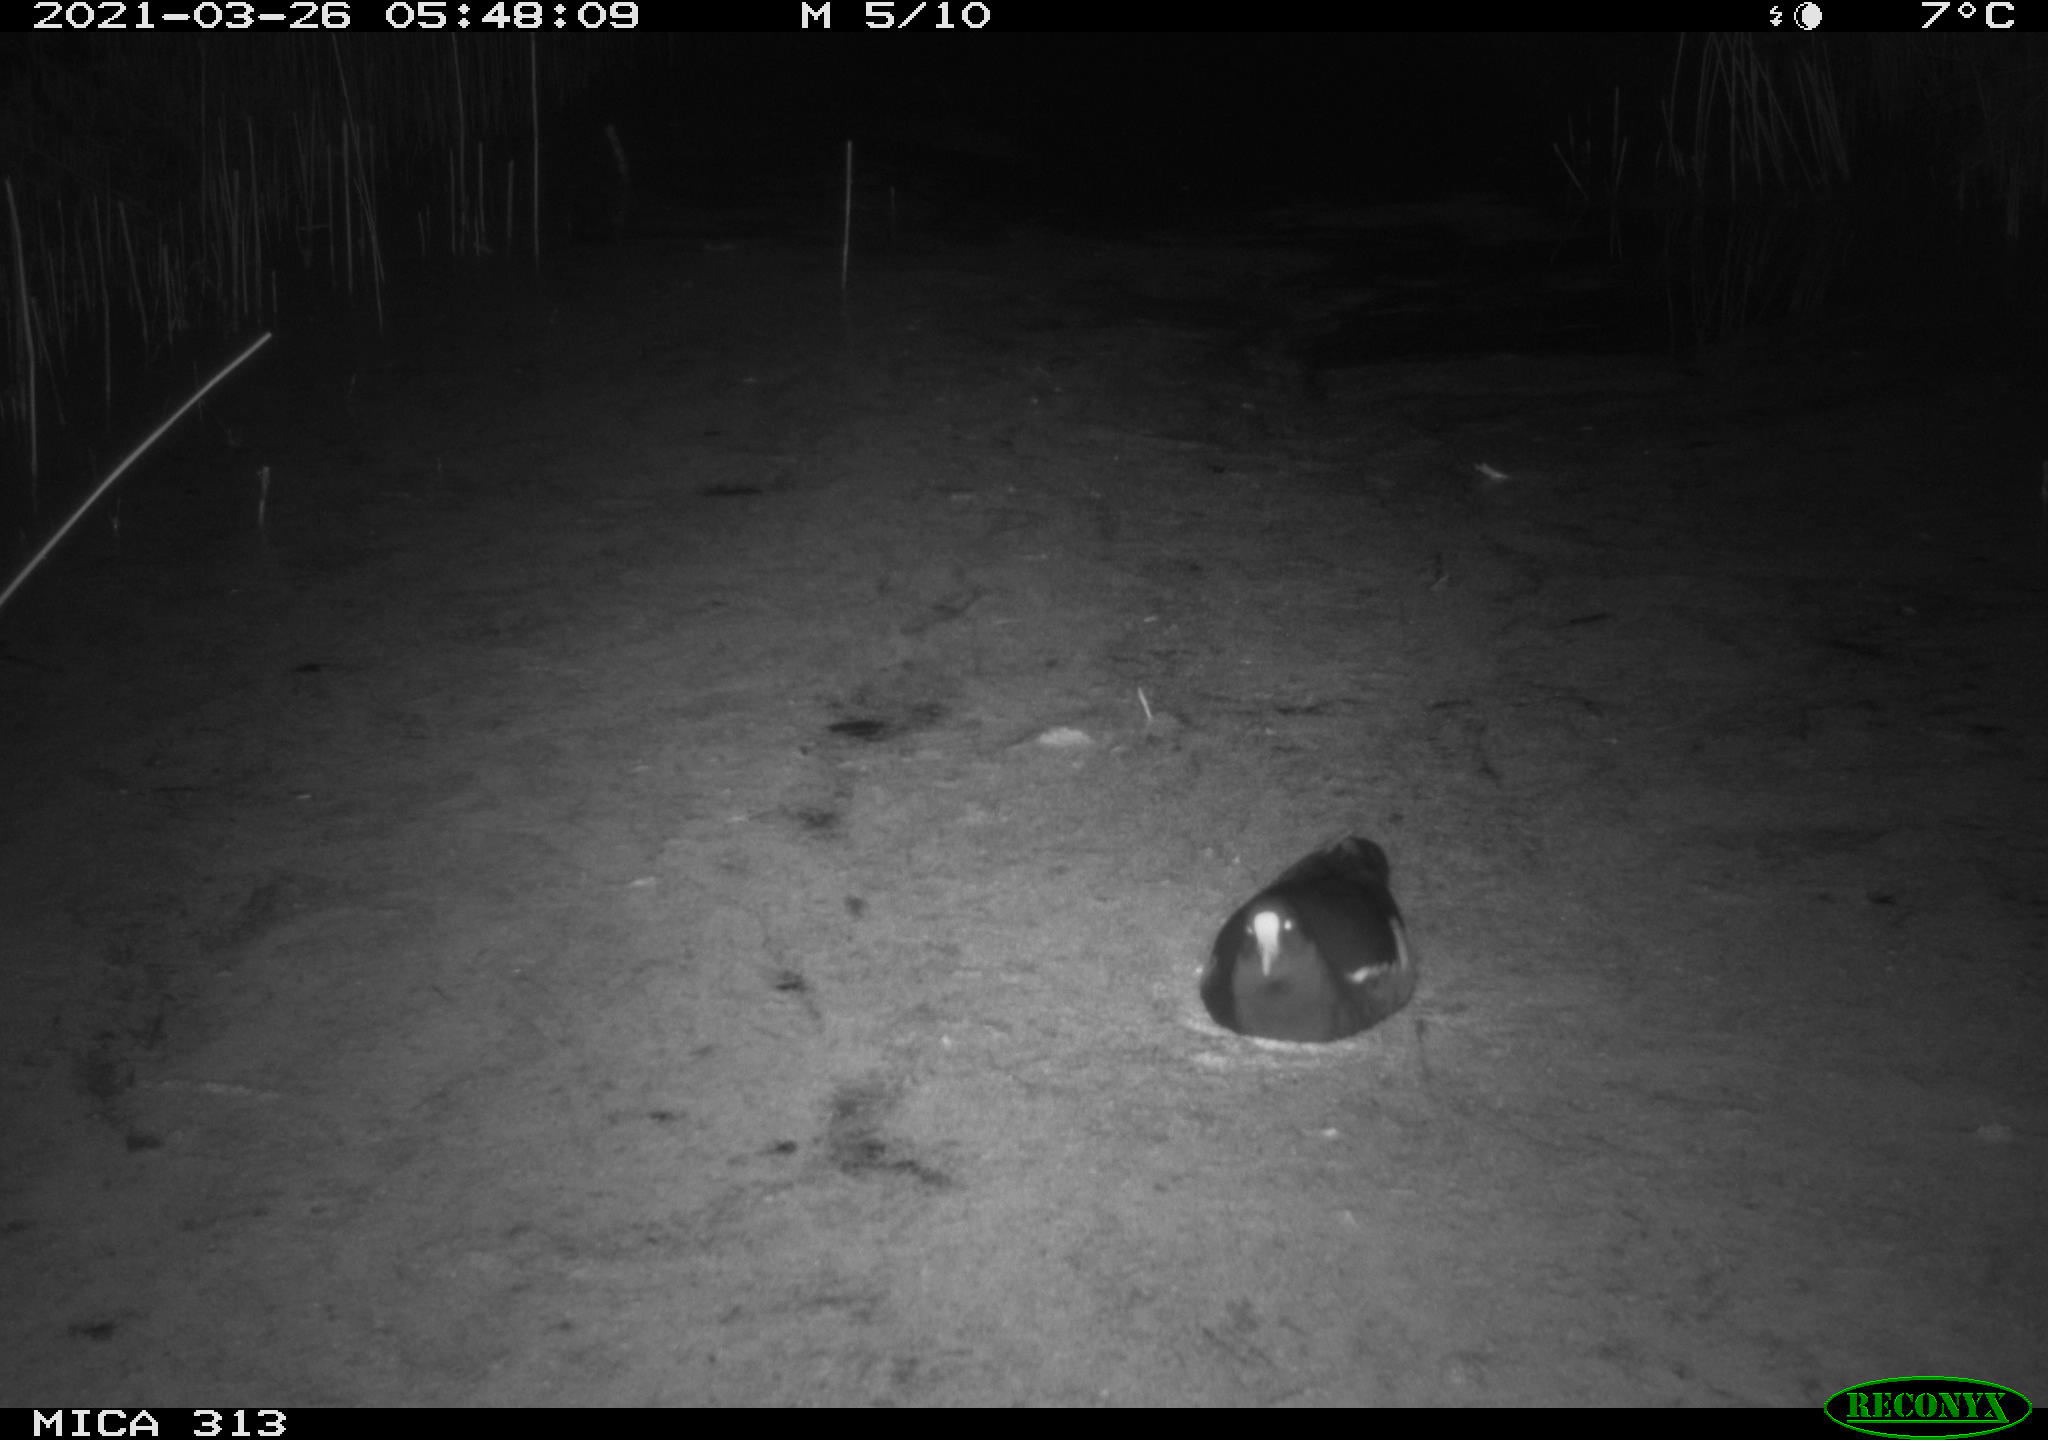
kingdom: Animalia
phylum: Chordata
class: Aves
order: Gruiformes
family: Rallidae
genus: Gallinula
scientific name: Gallinula chloropus
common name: Common moorhen
